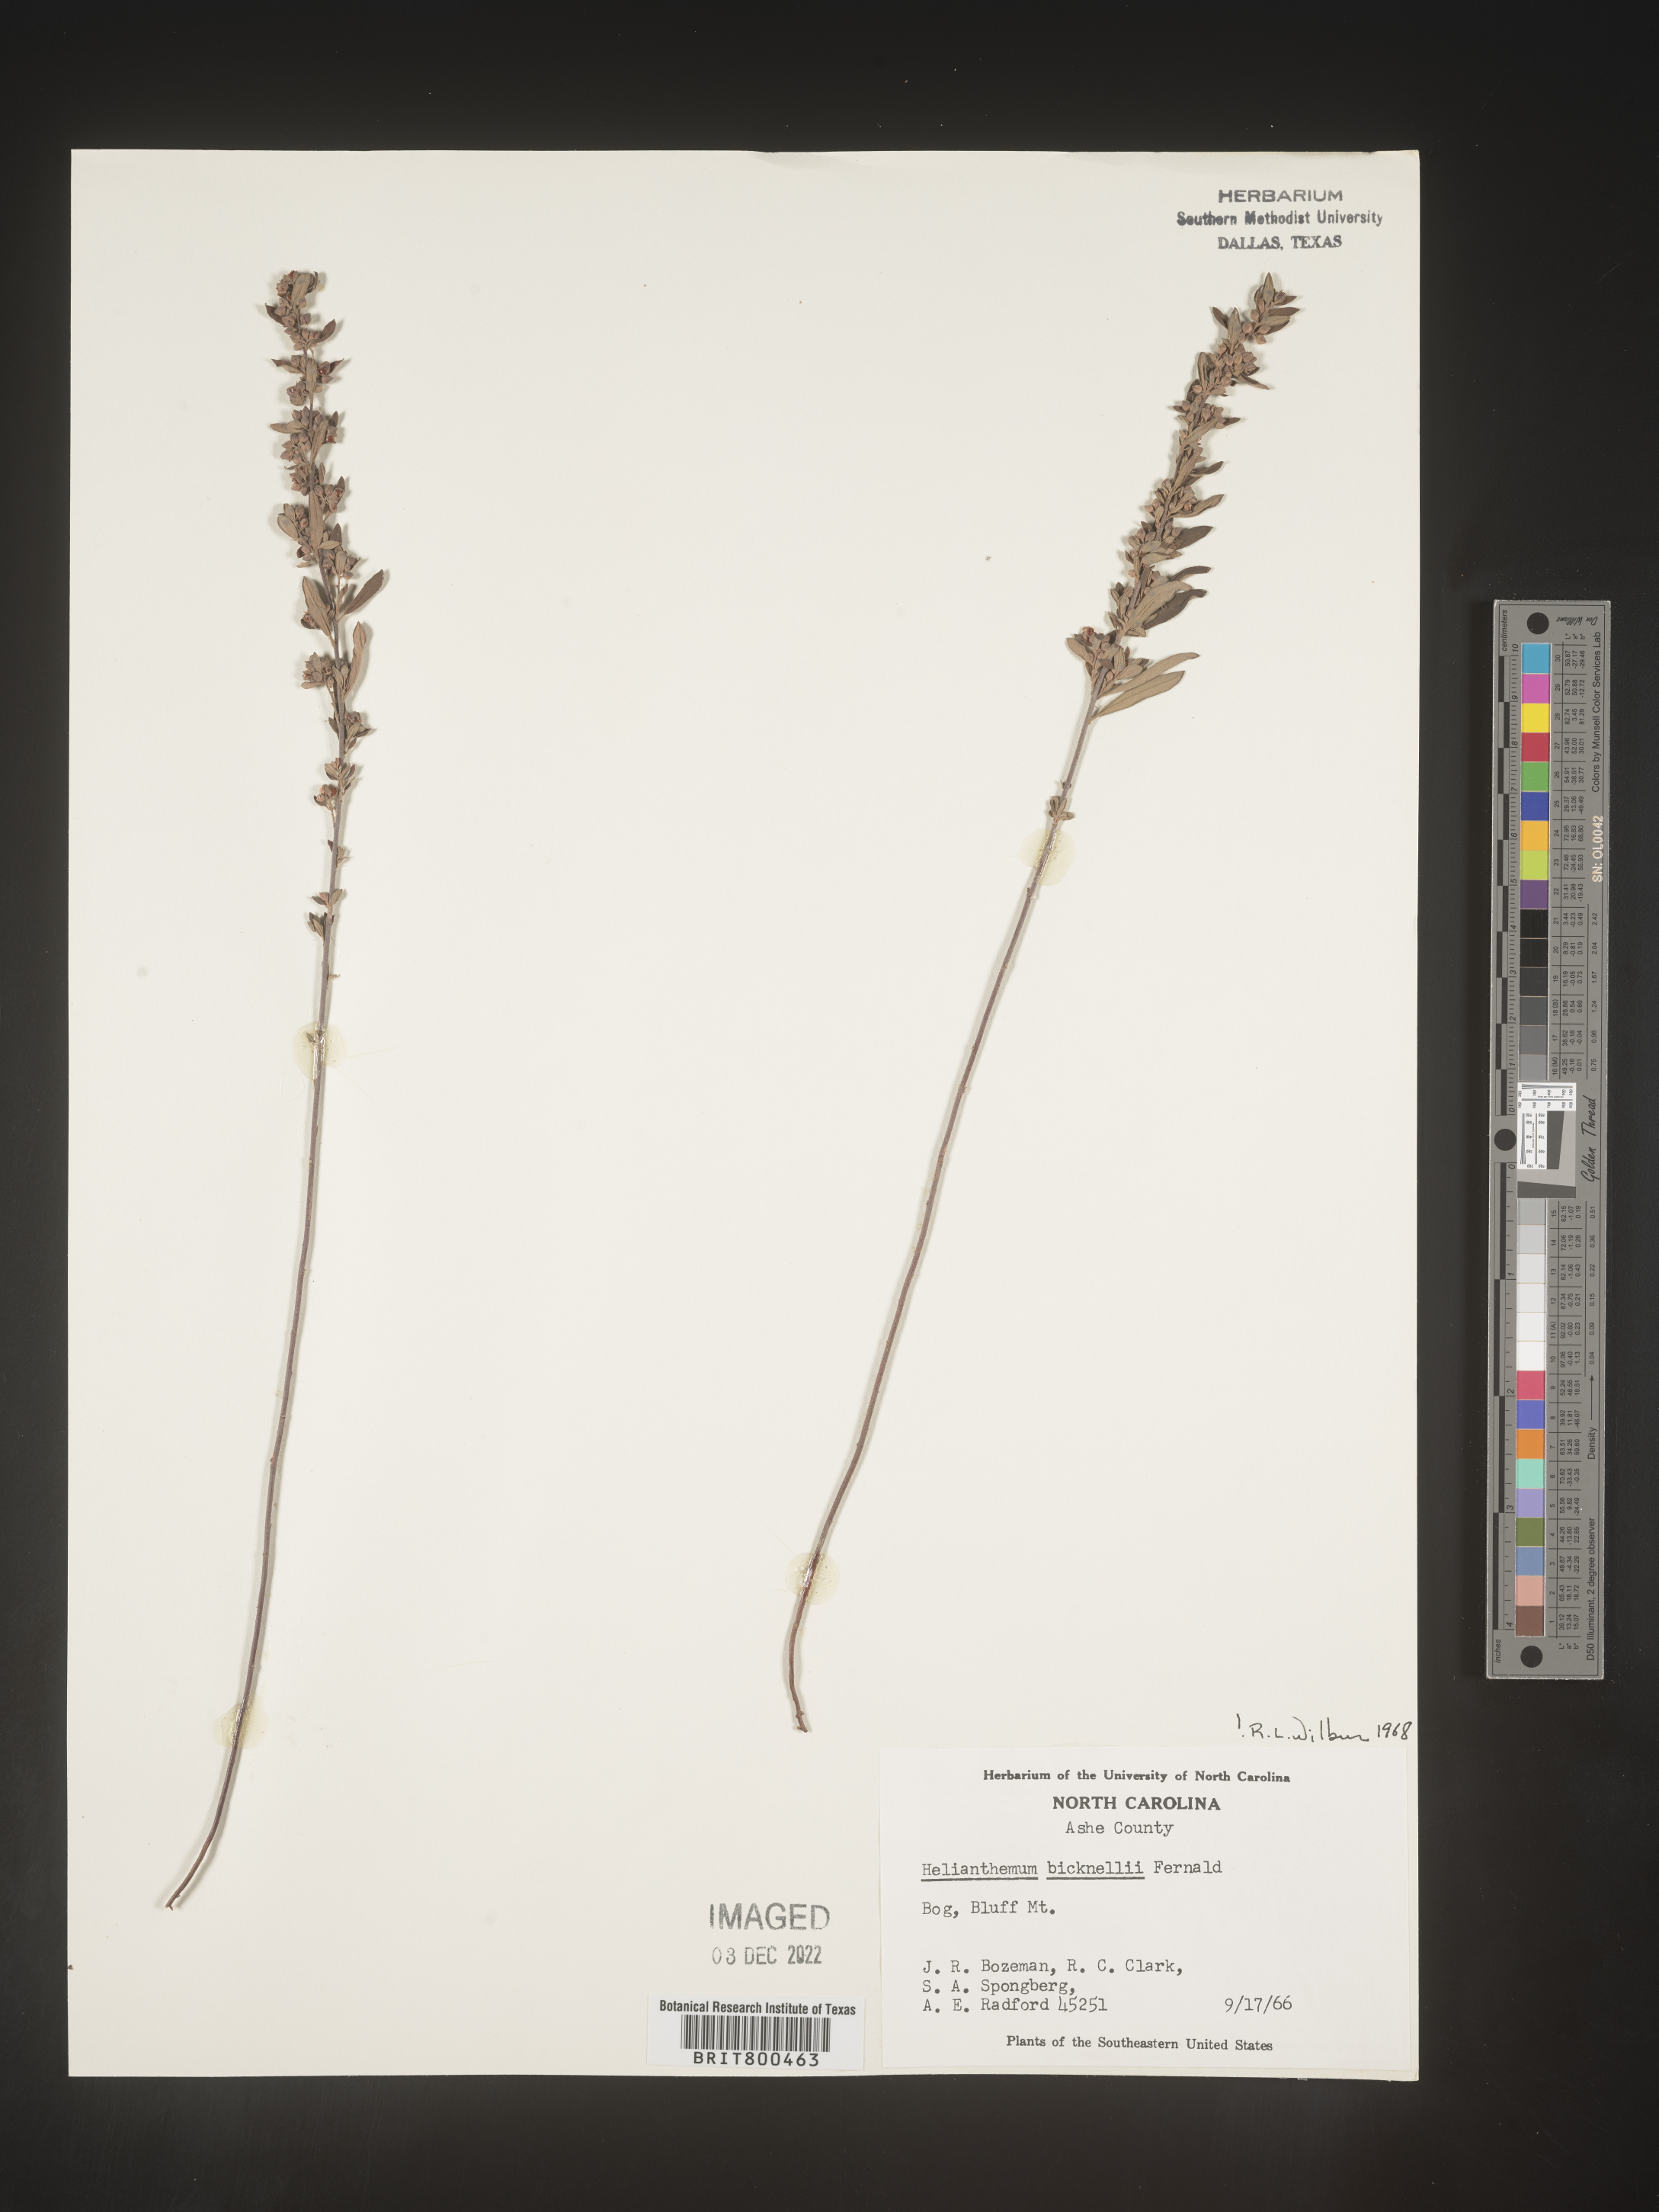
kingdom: Plantae
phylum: Tracheophyta
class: Magnoliopsida
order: Malvales
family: Cistaceae
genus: Helianthemum
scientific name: Helianthemum
